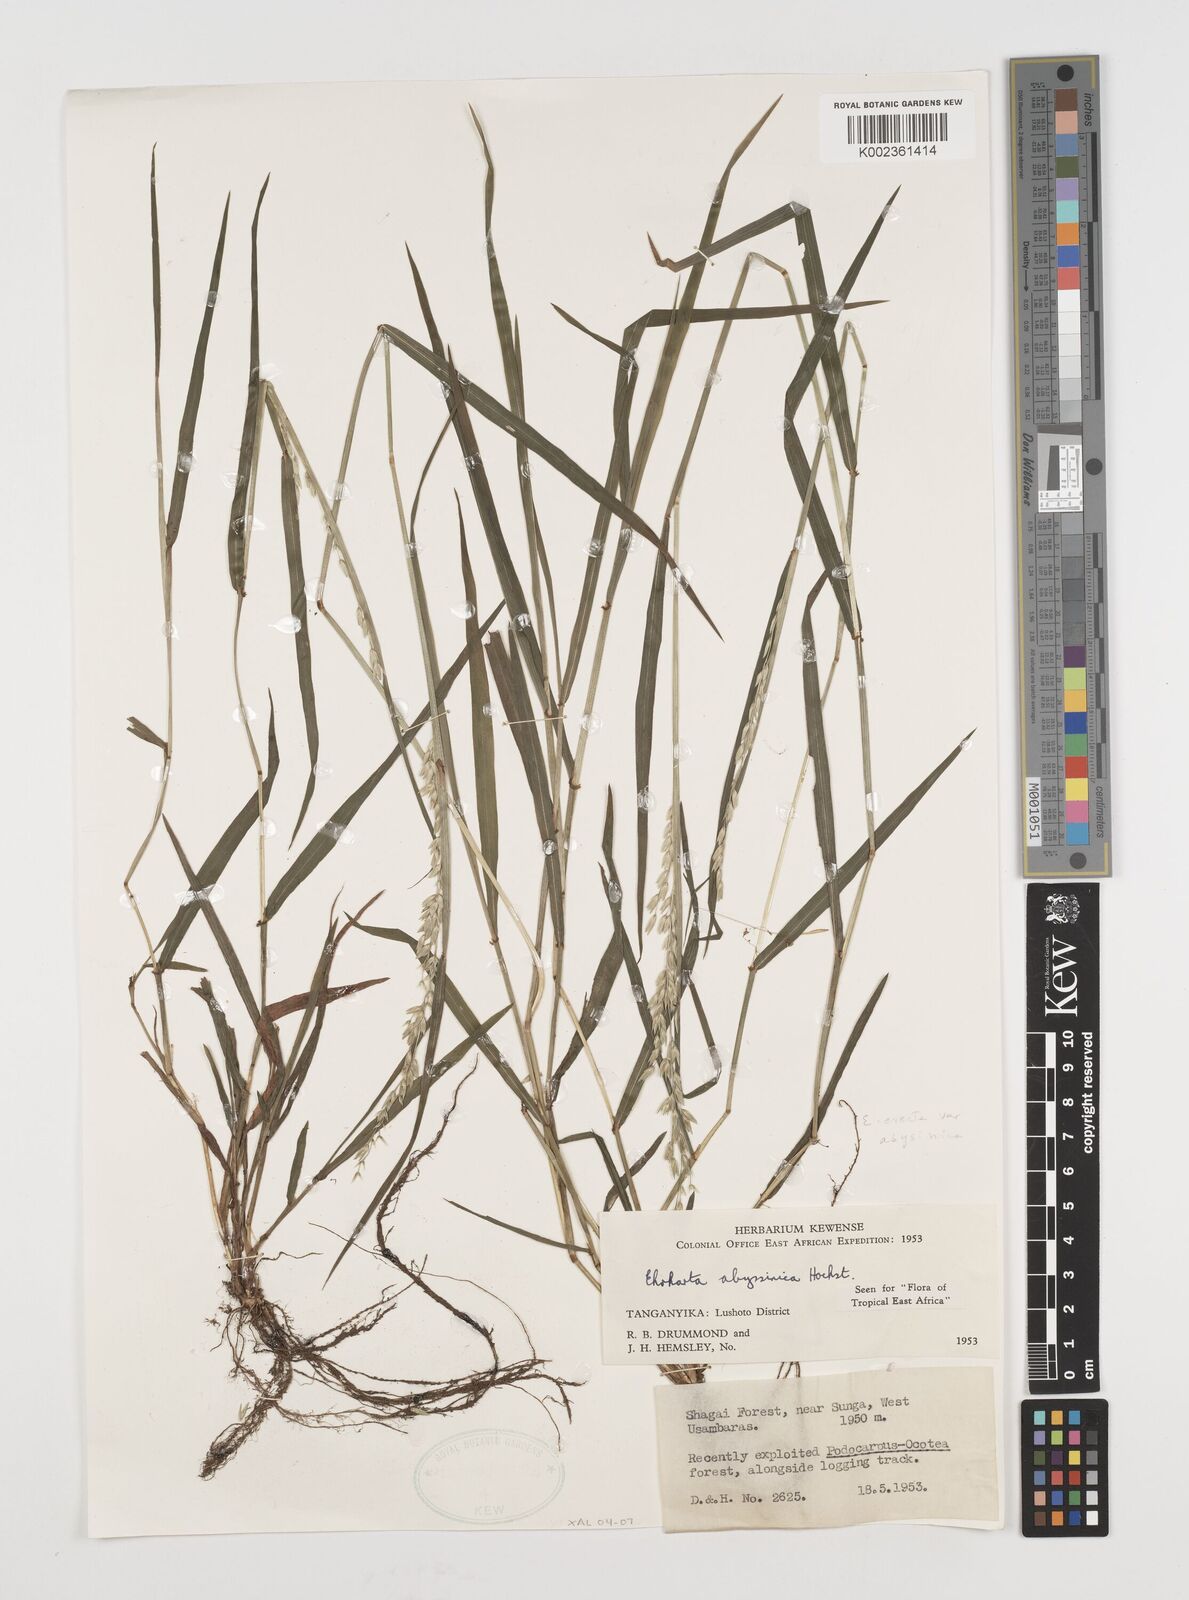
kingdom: Plantae
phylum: Tracheophyta
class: Liliopsida
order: Poales
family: Poaceae
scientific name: Poaceae
